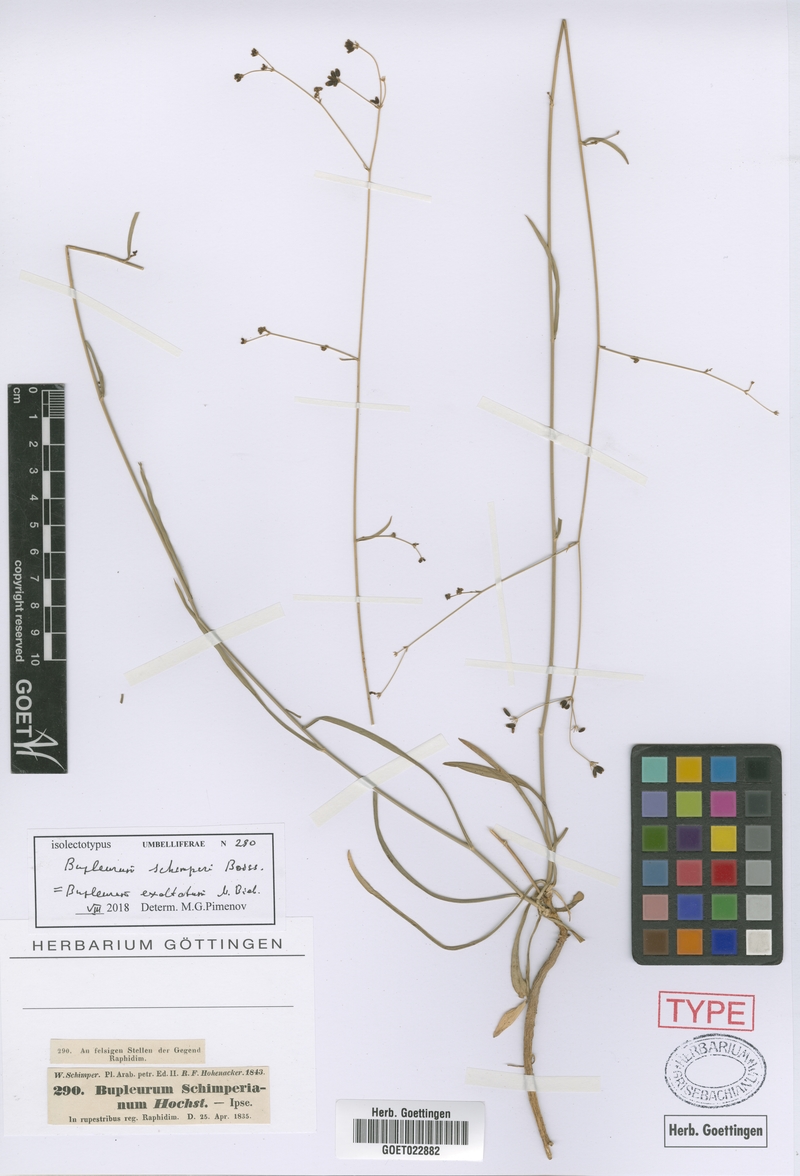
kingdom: Plantae
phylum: Tracheophyta
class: Magnoliopsida
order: Apiales
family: Apiaceae
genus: Bupleurum
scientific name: Bupleurum exaltatum
